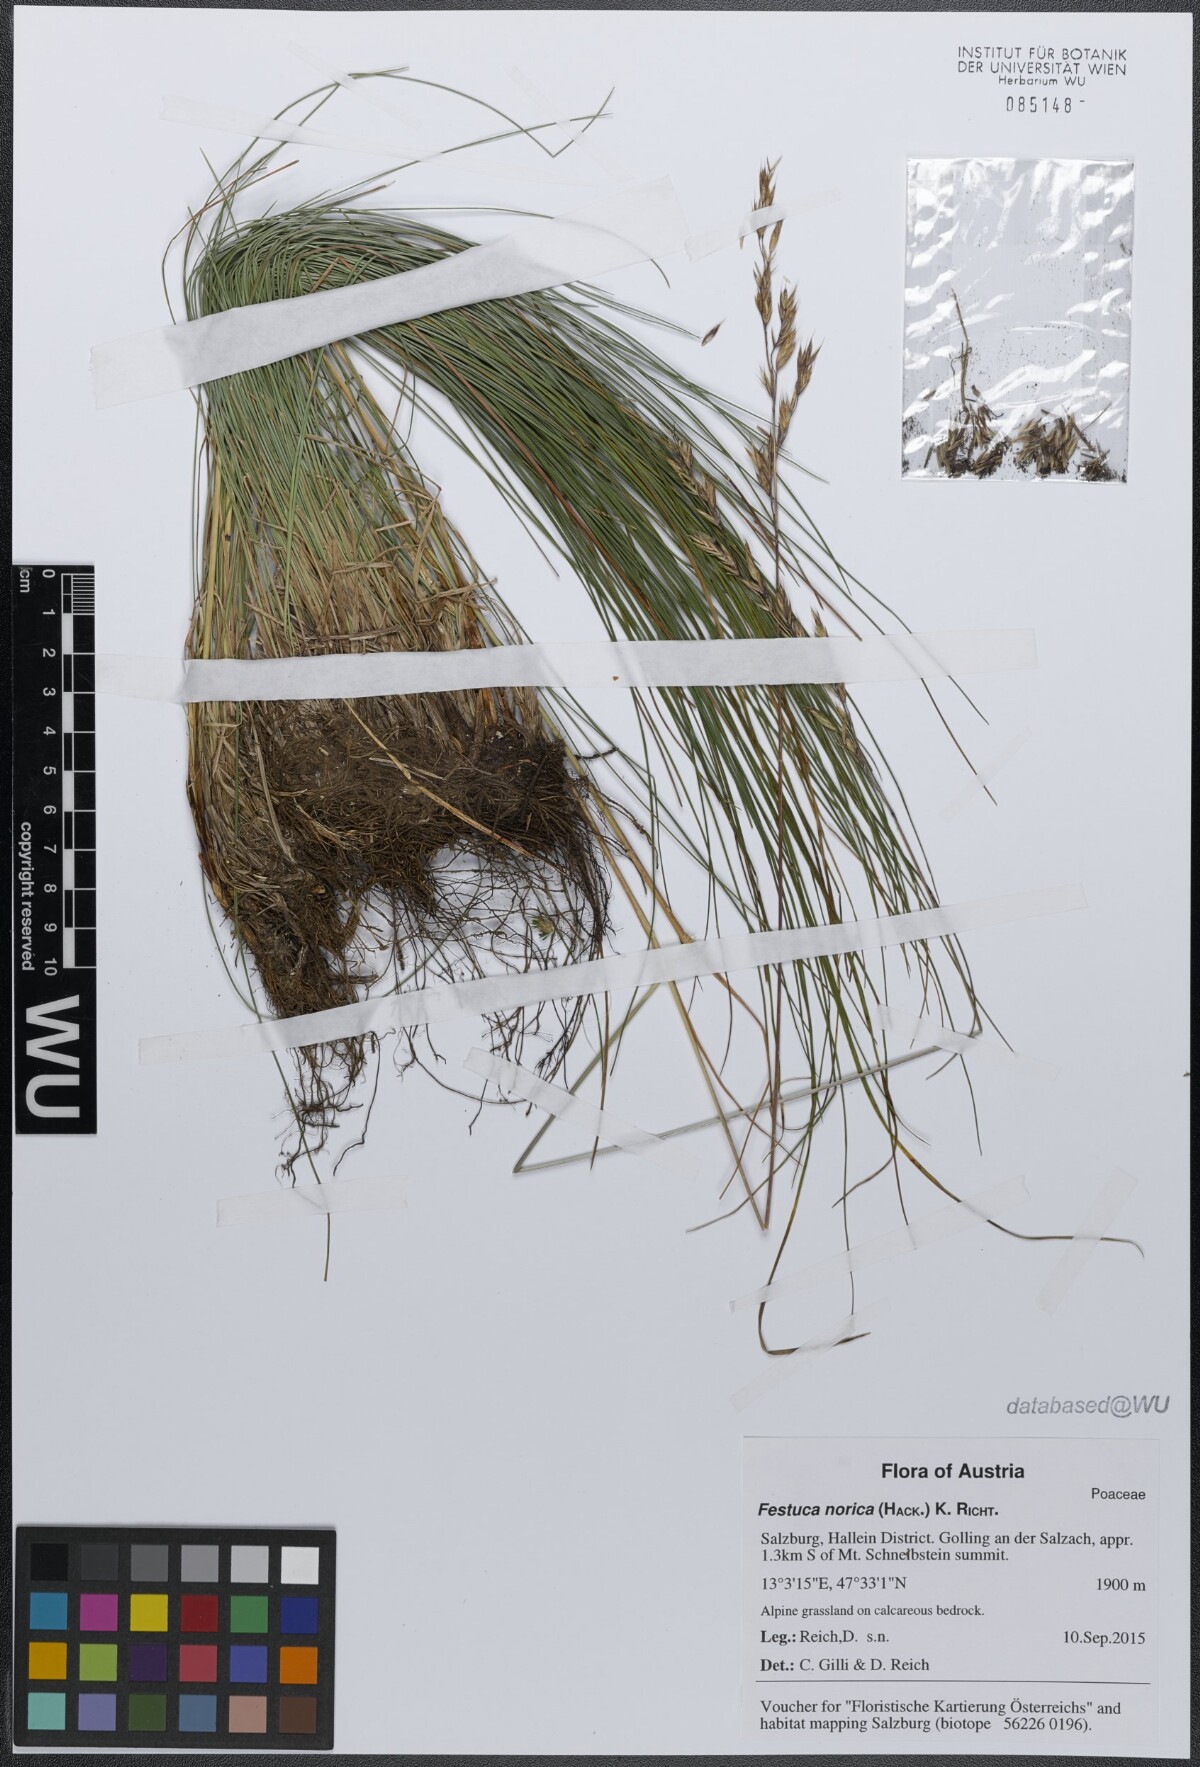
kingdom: Plantae
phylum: Tracheophyta
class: Liliopsida
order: Poales
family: Poaceae
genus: Festuca
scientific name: Festuca norica
